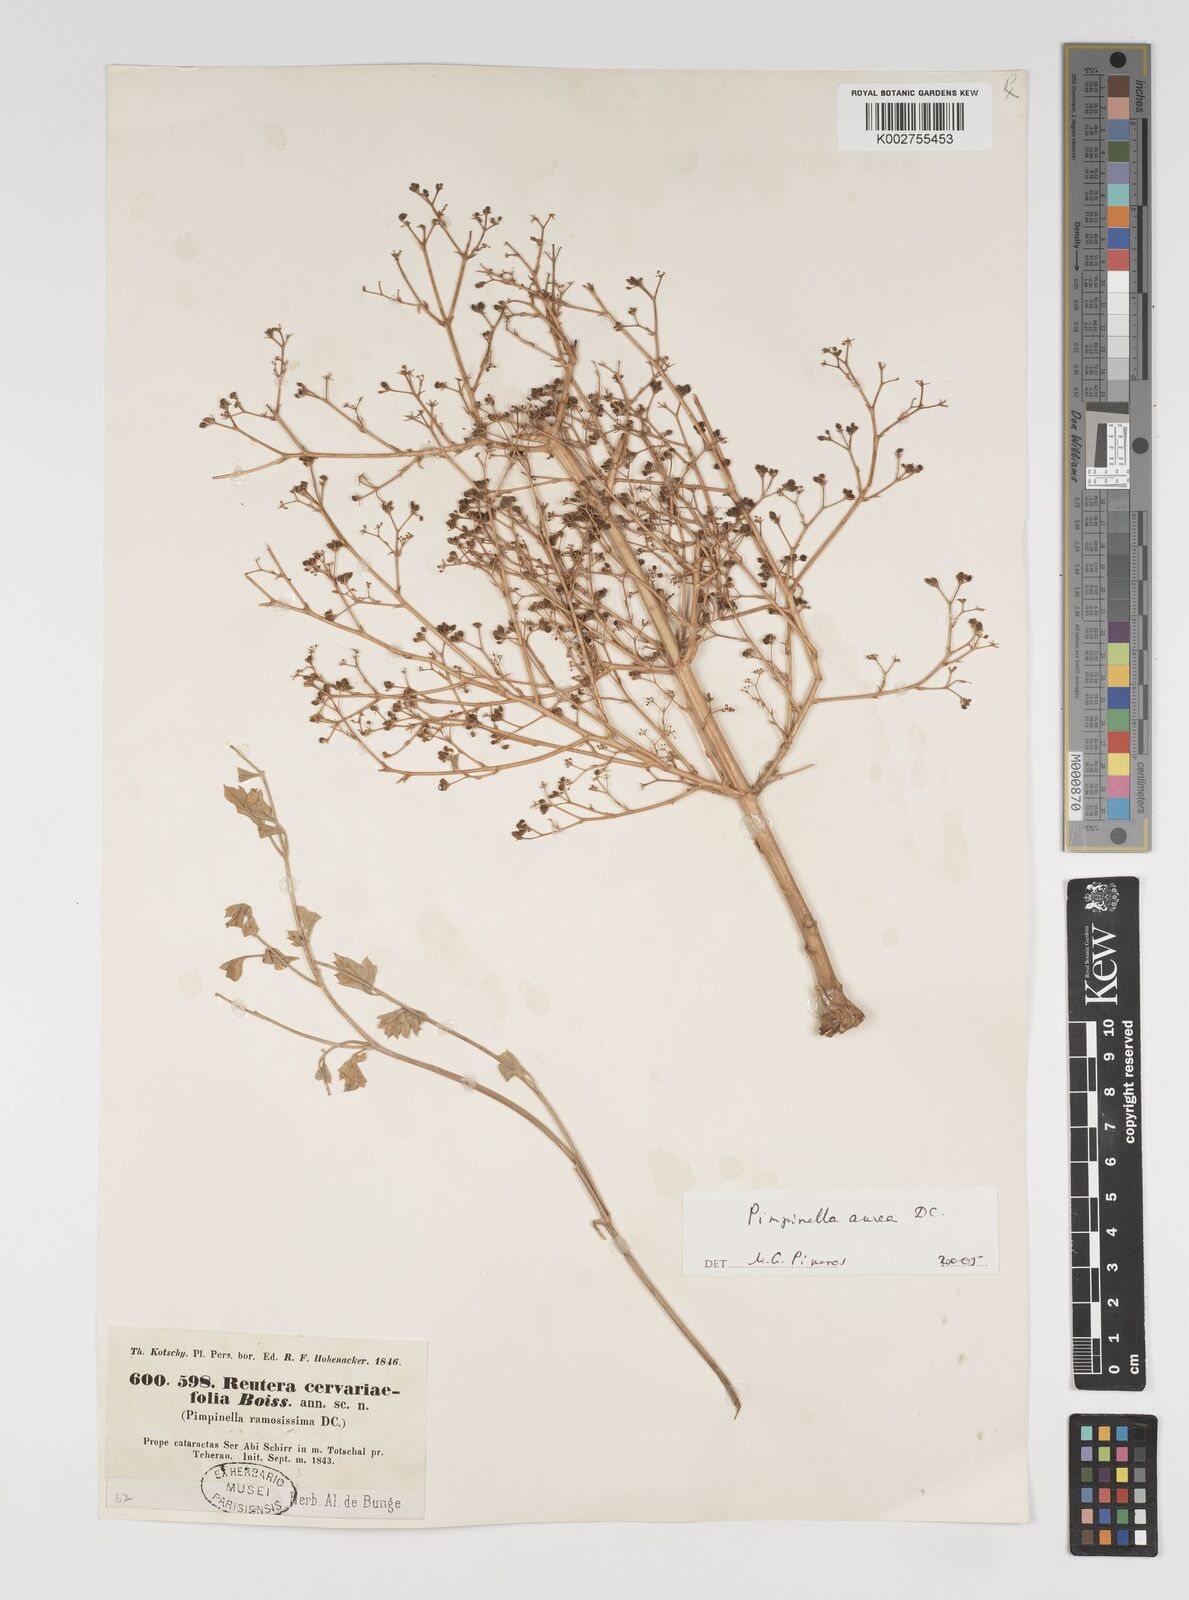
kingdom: Plantae
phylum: Tracheophyta
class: Magnoliopsida
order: Apiales
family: Apiaceae
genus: Pimpinella
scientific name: Pimpinella aurea
